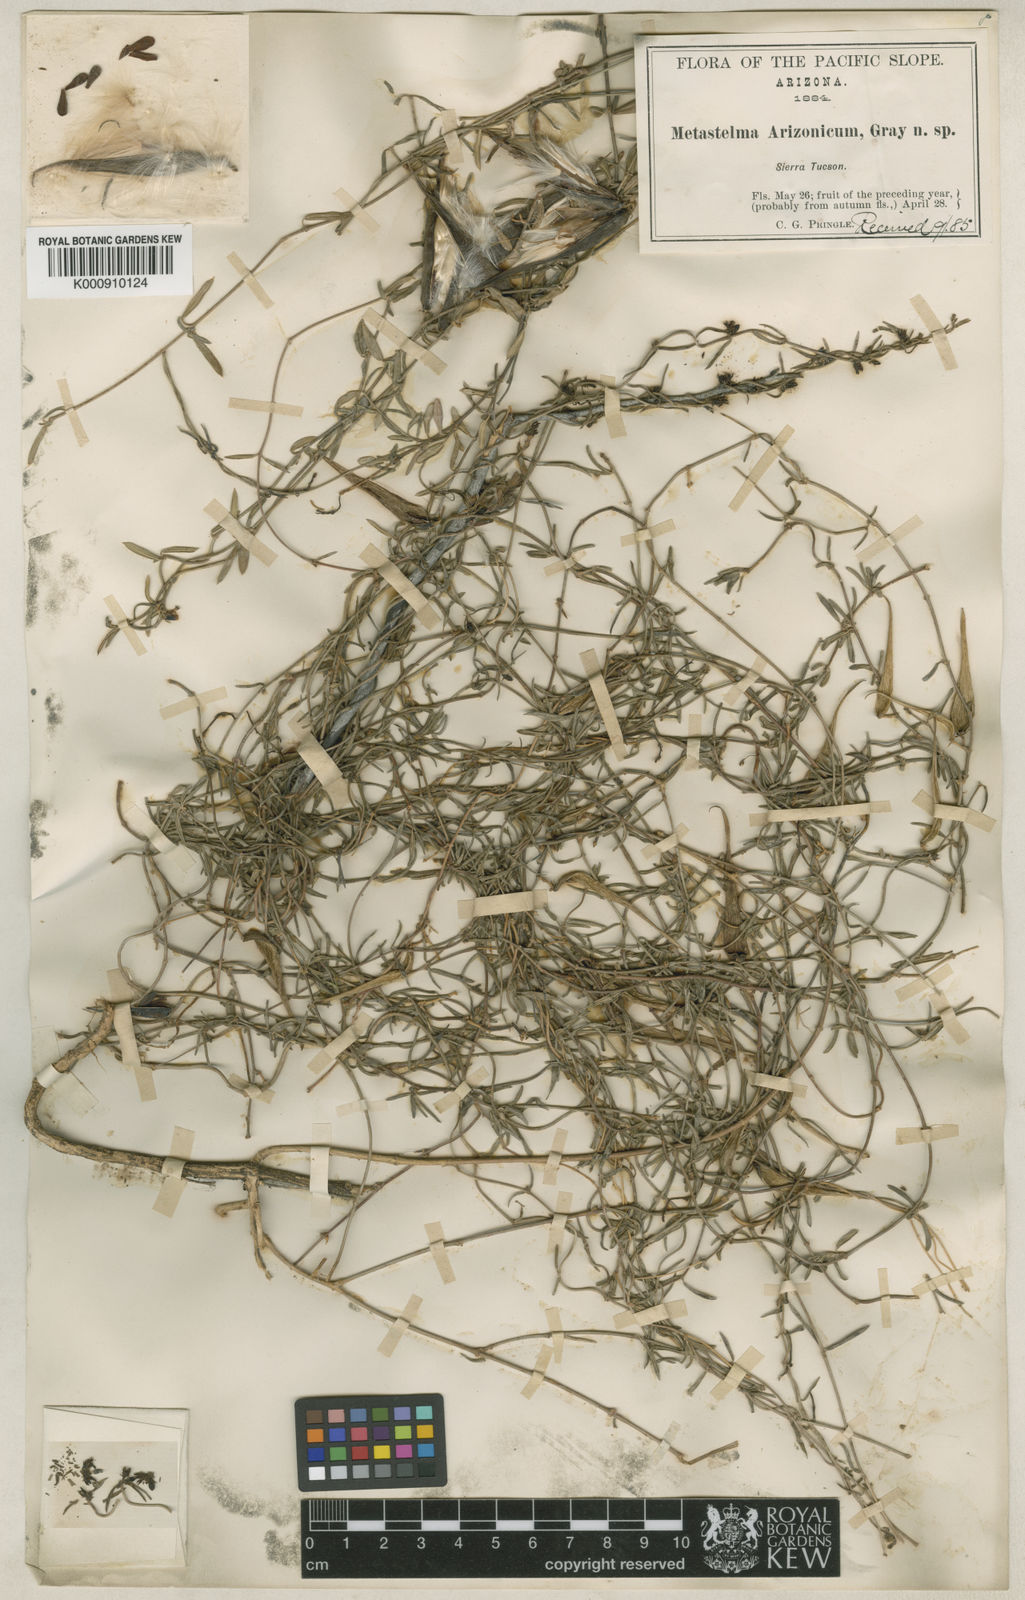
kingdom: Plantae
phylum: Tracheophyta
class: Magnoliopsida
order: Gentianales
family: Apocynaceae
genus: Metastelma
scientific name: Metastelma arizonicum
